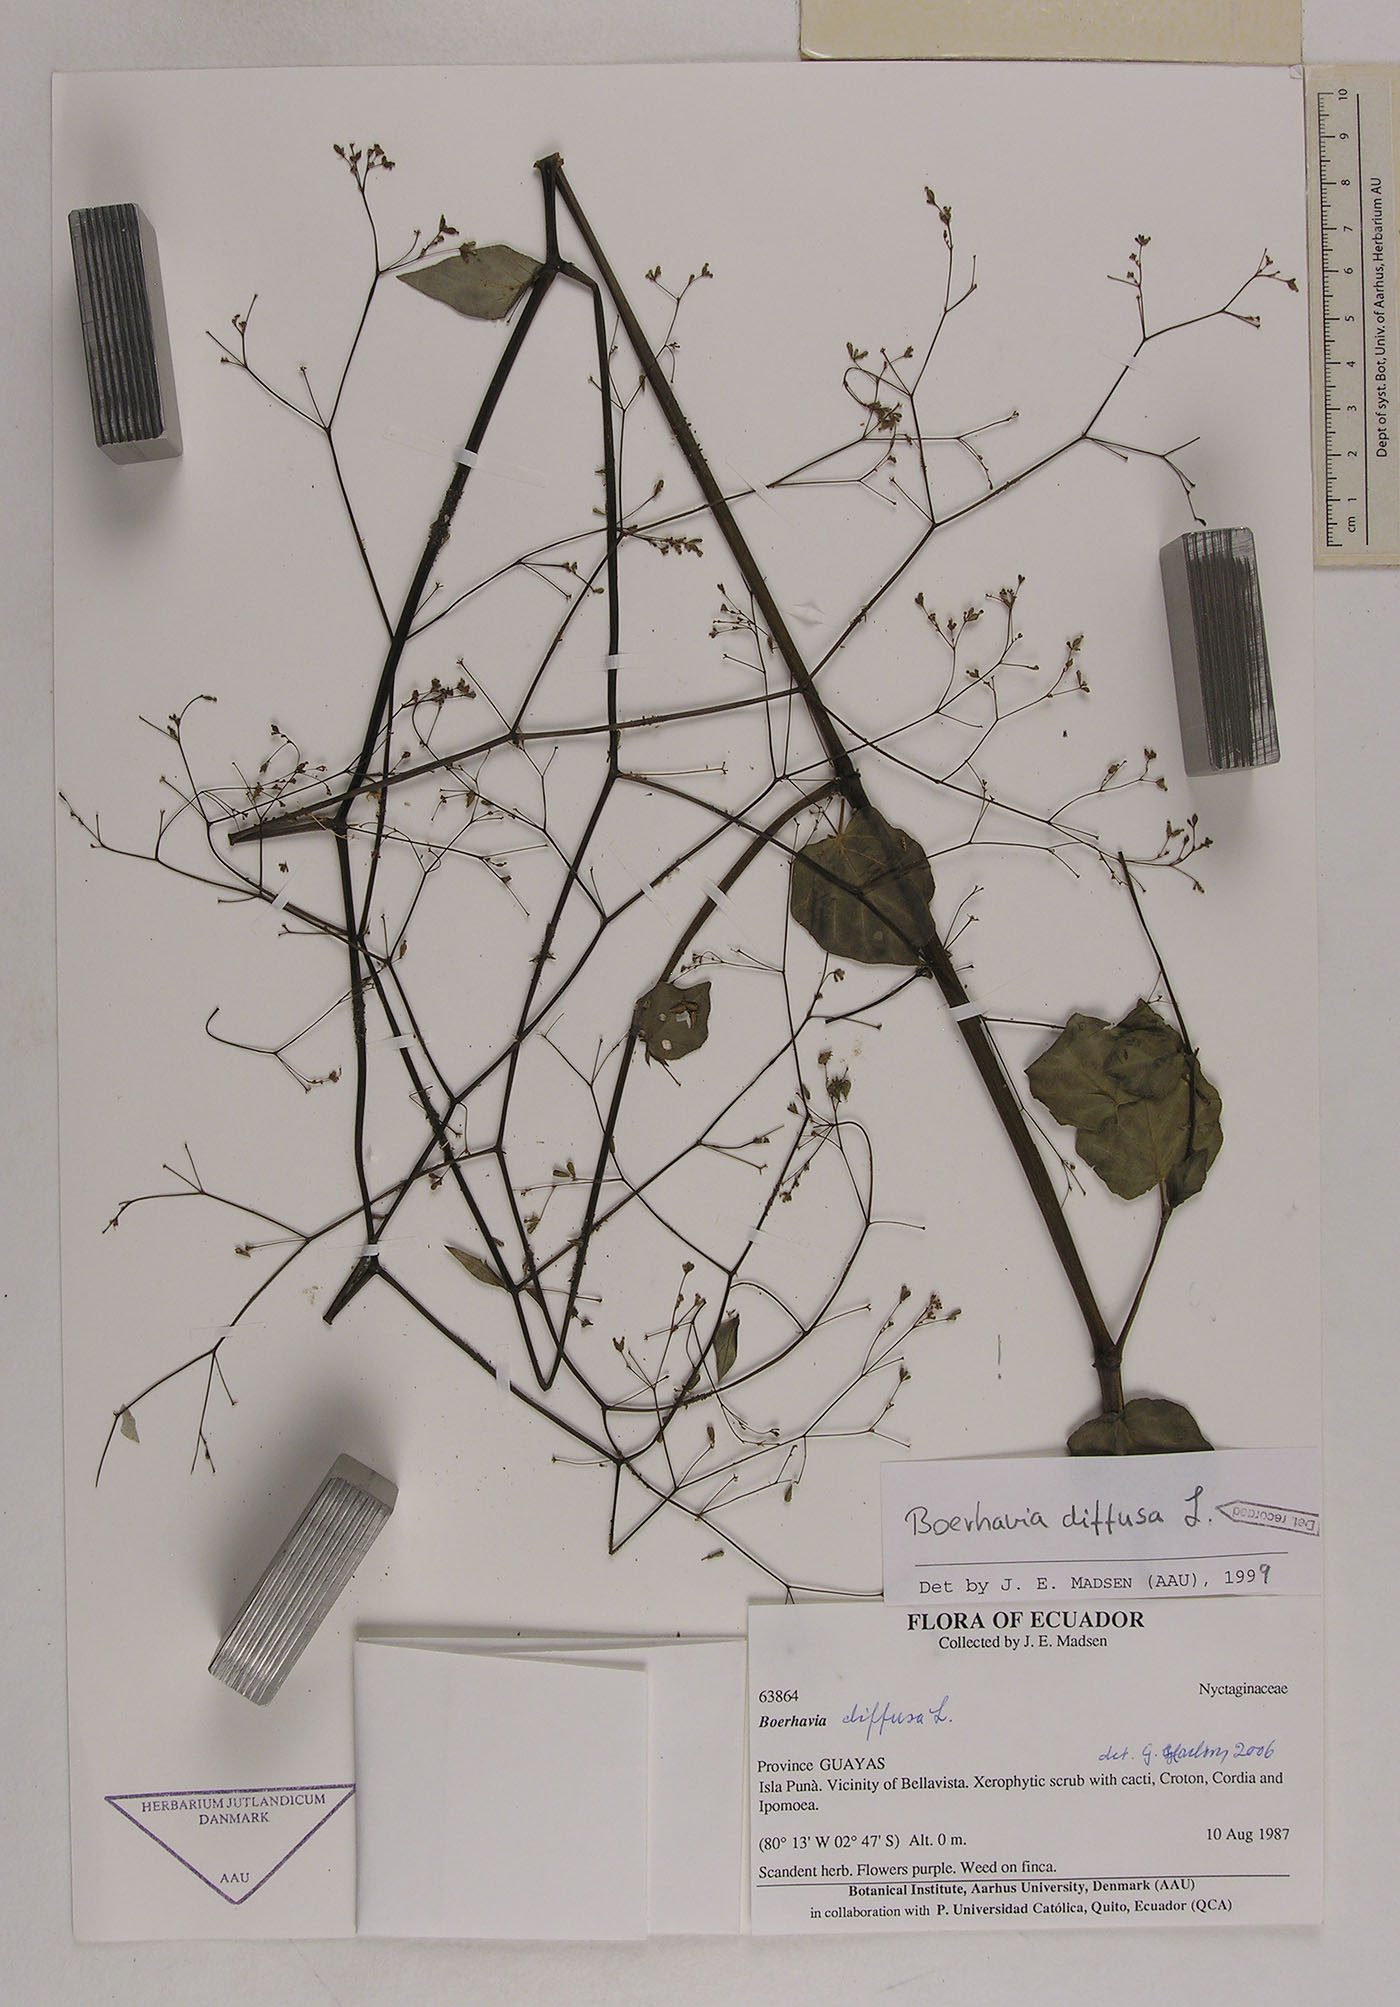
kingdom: Plantae
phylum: Tracheophyta
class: Magnoliopsida
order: Caryophyllales
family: Nyctaginaceae
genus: Boerhavia
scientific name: Boerhavia diffusa
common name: Red spiderling
